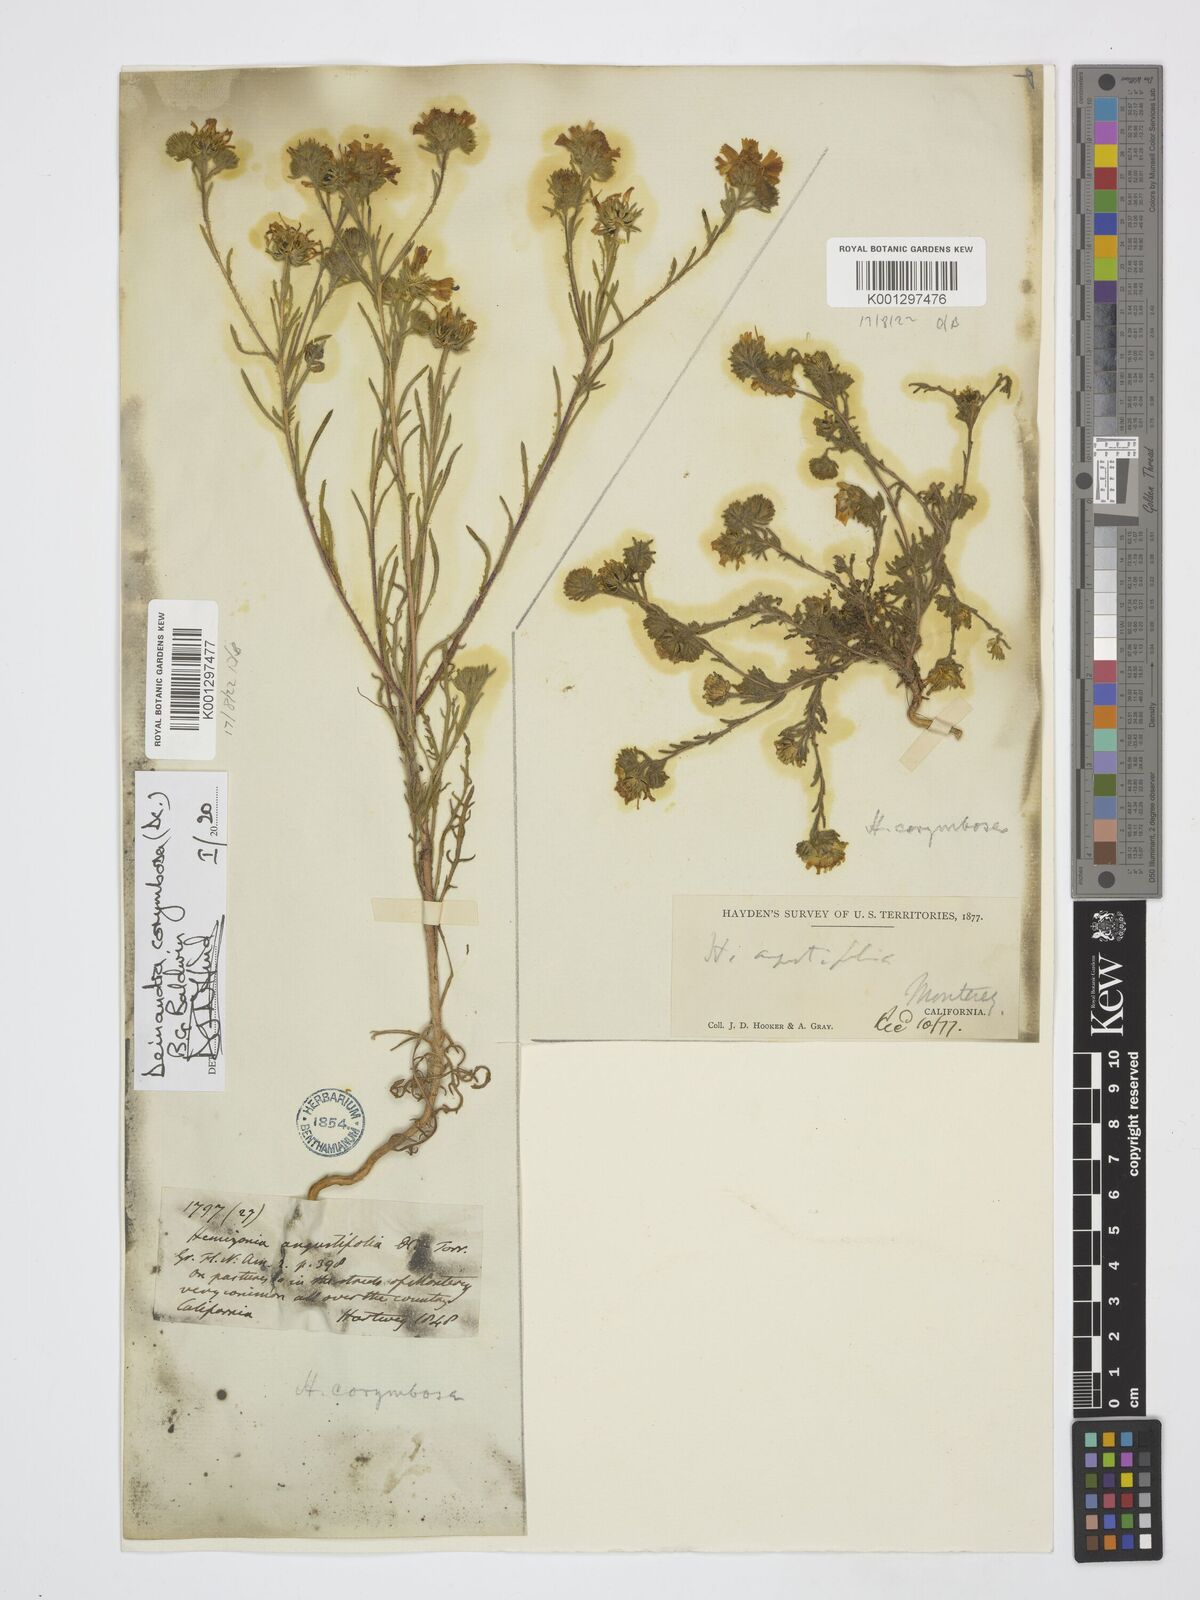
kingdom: Plantae
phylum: Tracheophyta
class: Magnoliopsida
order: Asterales
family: Asteraceae
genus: Deinandra
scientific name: Deinandra corymbosa
